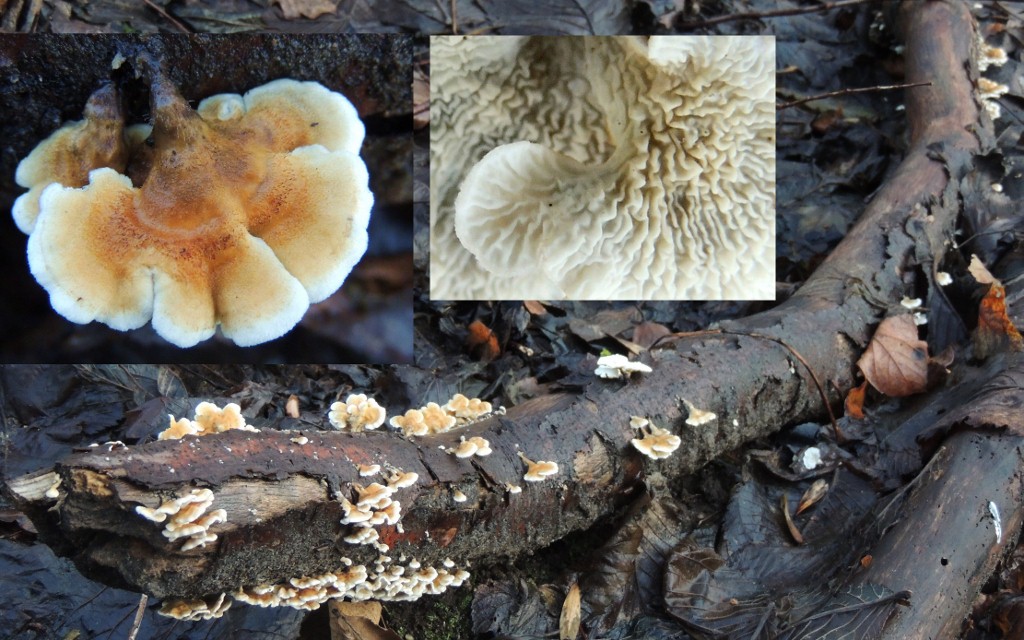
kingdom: Fungi
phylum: Basidiomycota
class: Agaricomycetes
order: Amylocorticiales
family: Amylocorticiaceae
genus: Plicaturopsis
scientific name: Plicaturopsis crispa
